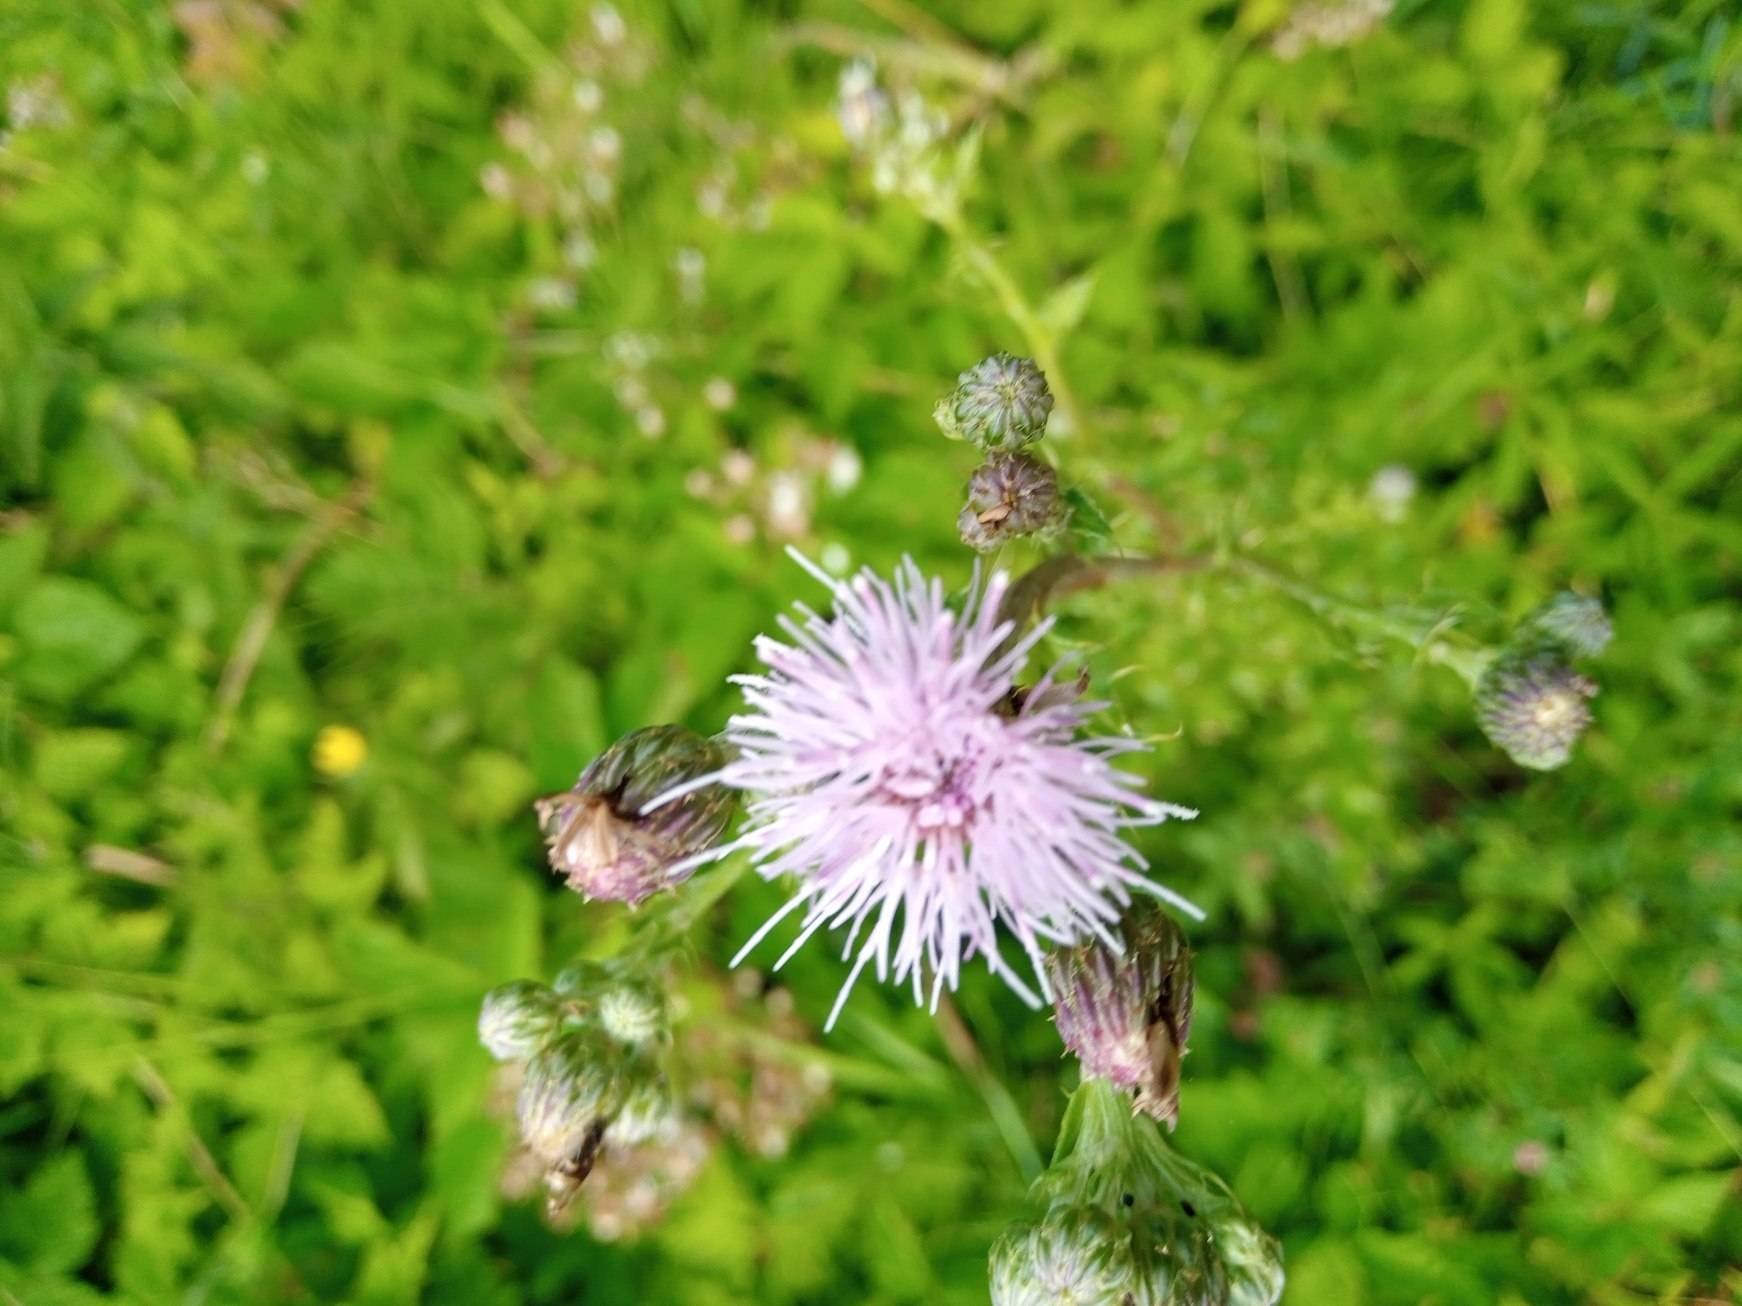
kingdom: Plantae
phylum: Tracheophyta
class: Magnoliopsida
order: Asterales
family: Asteraceae
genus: Cirsium
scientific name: Cirsium arvense
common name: Ager-tidsel
